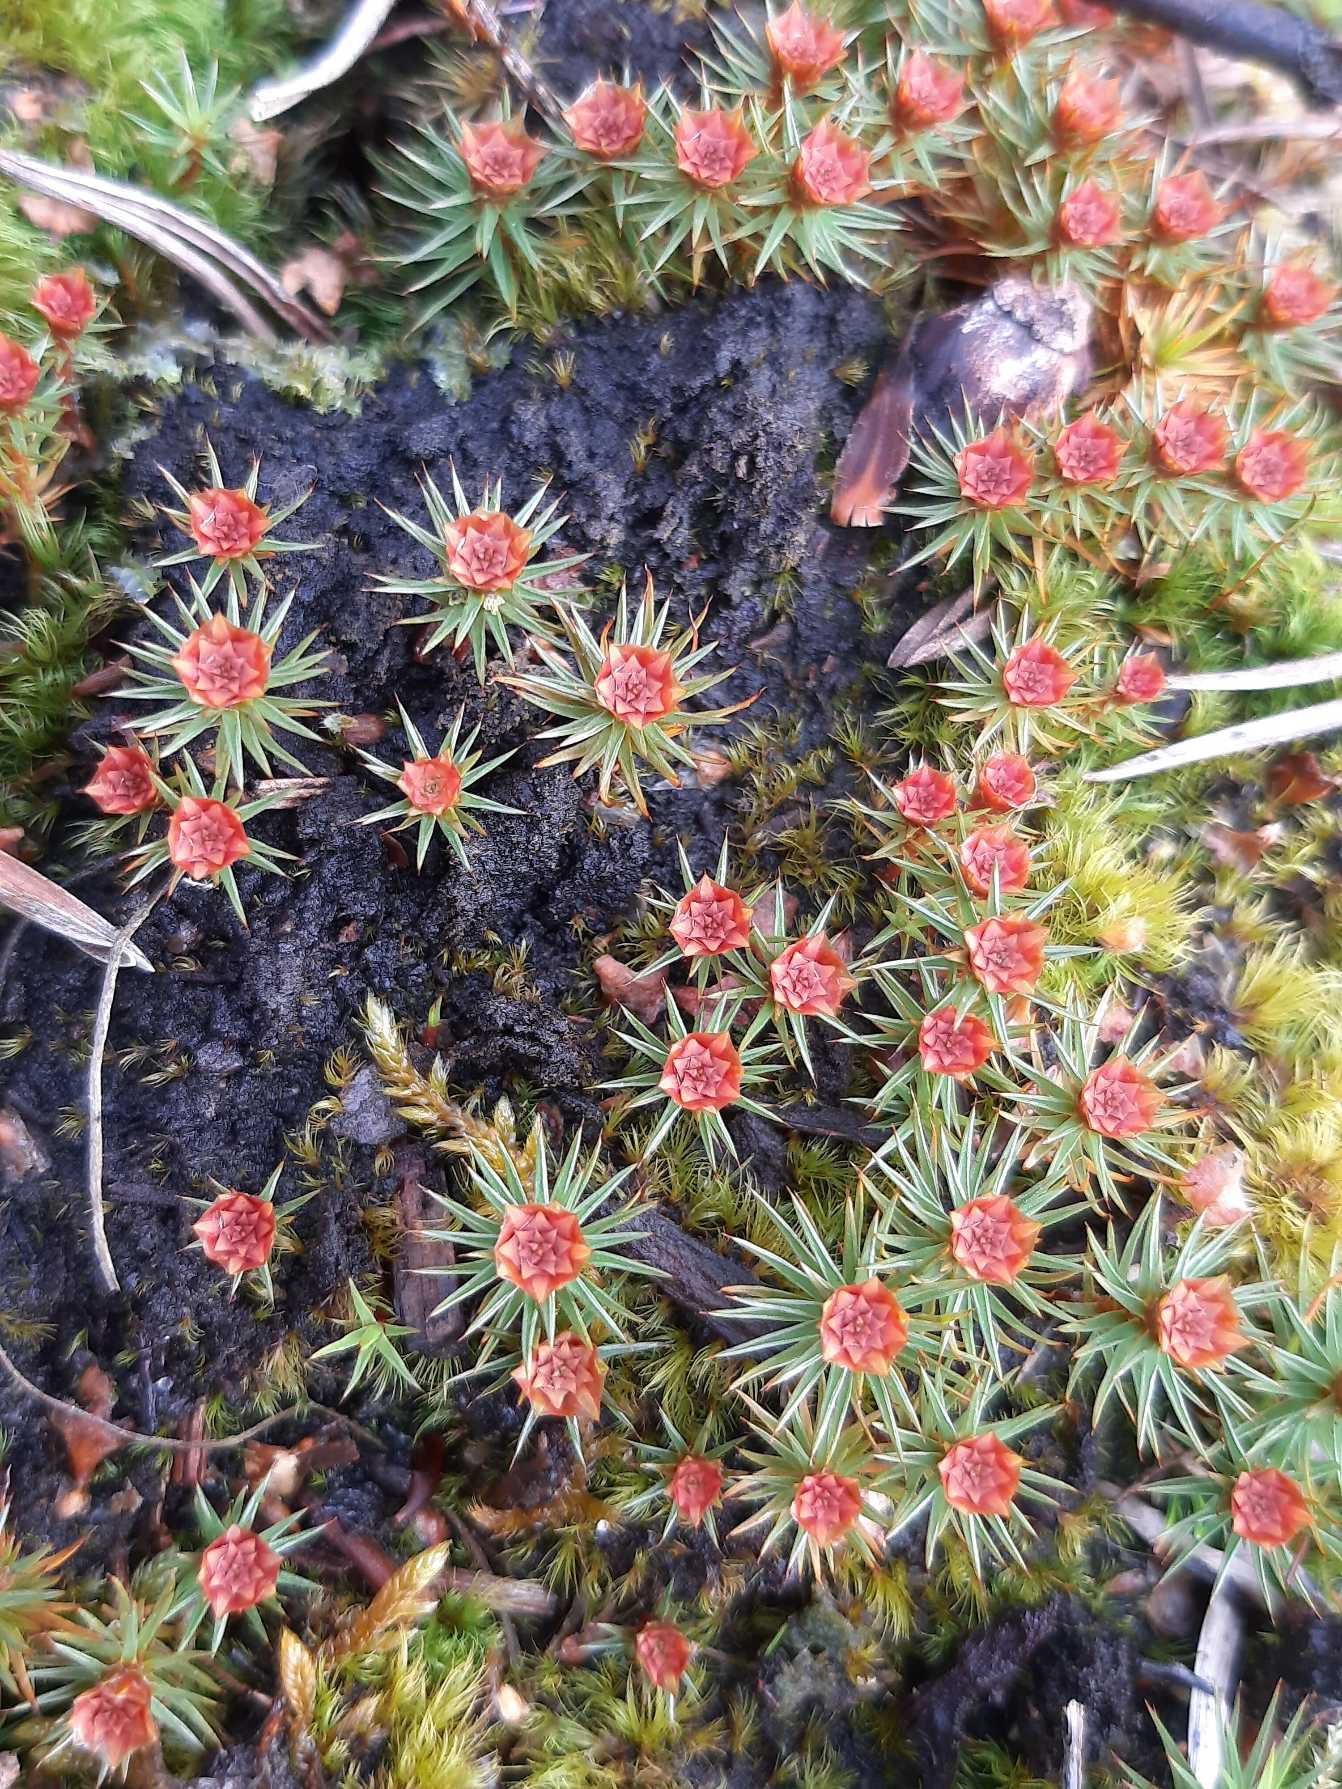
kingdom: Plantae
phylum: Bryophyta
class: Polytrichopsida
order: Polytrichales
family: Polytrichaceae
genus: Polytrichum
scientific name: Polytrichum juniperinum
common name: Ene-jomfruhår
